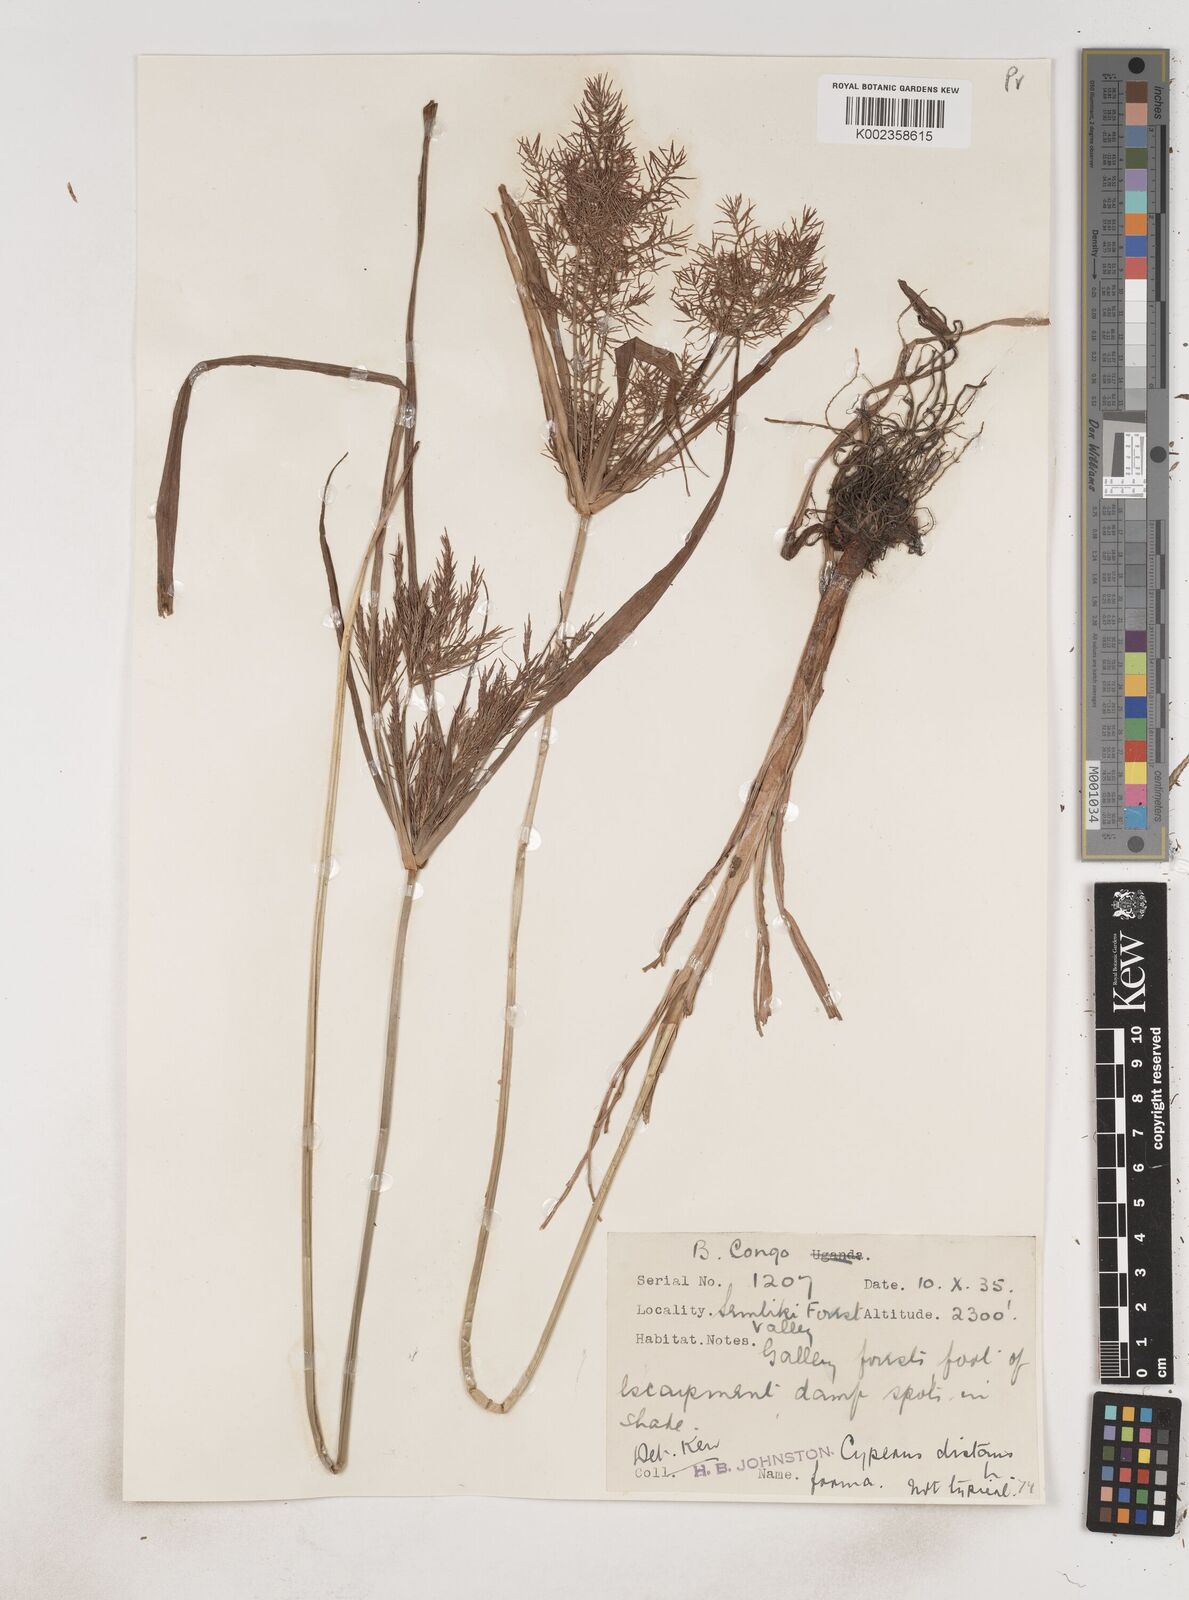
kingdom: Plantae
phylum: Tracheophyta
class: Liliopsida
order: Poales
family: Cyperaceae
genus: Cyperus
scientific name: Cyperus distans
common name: Slender cyperus
